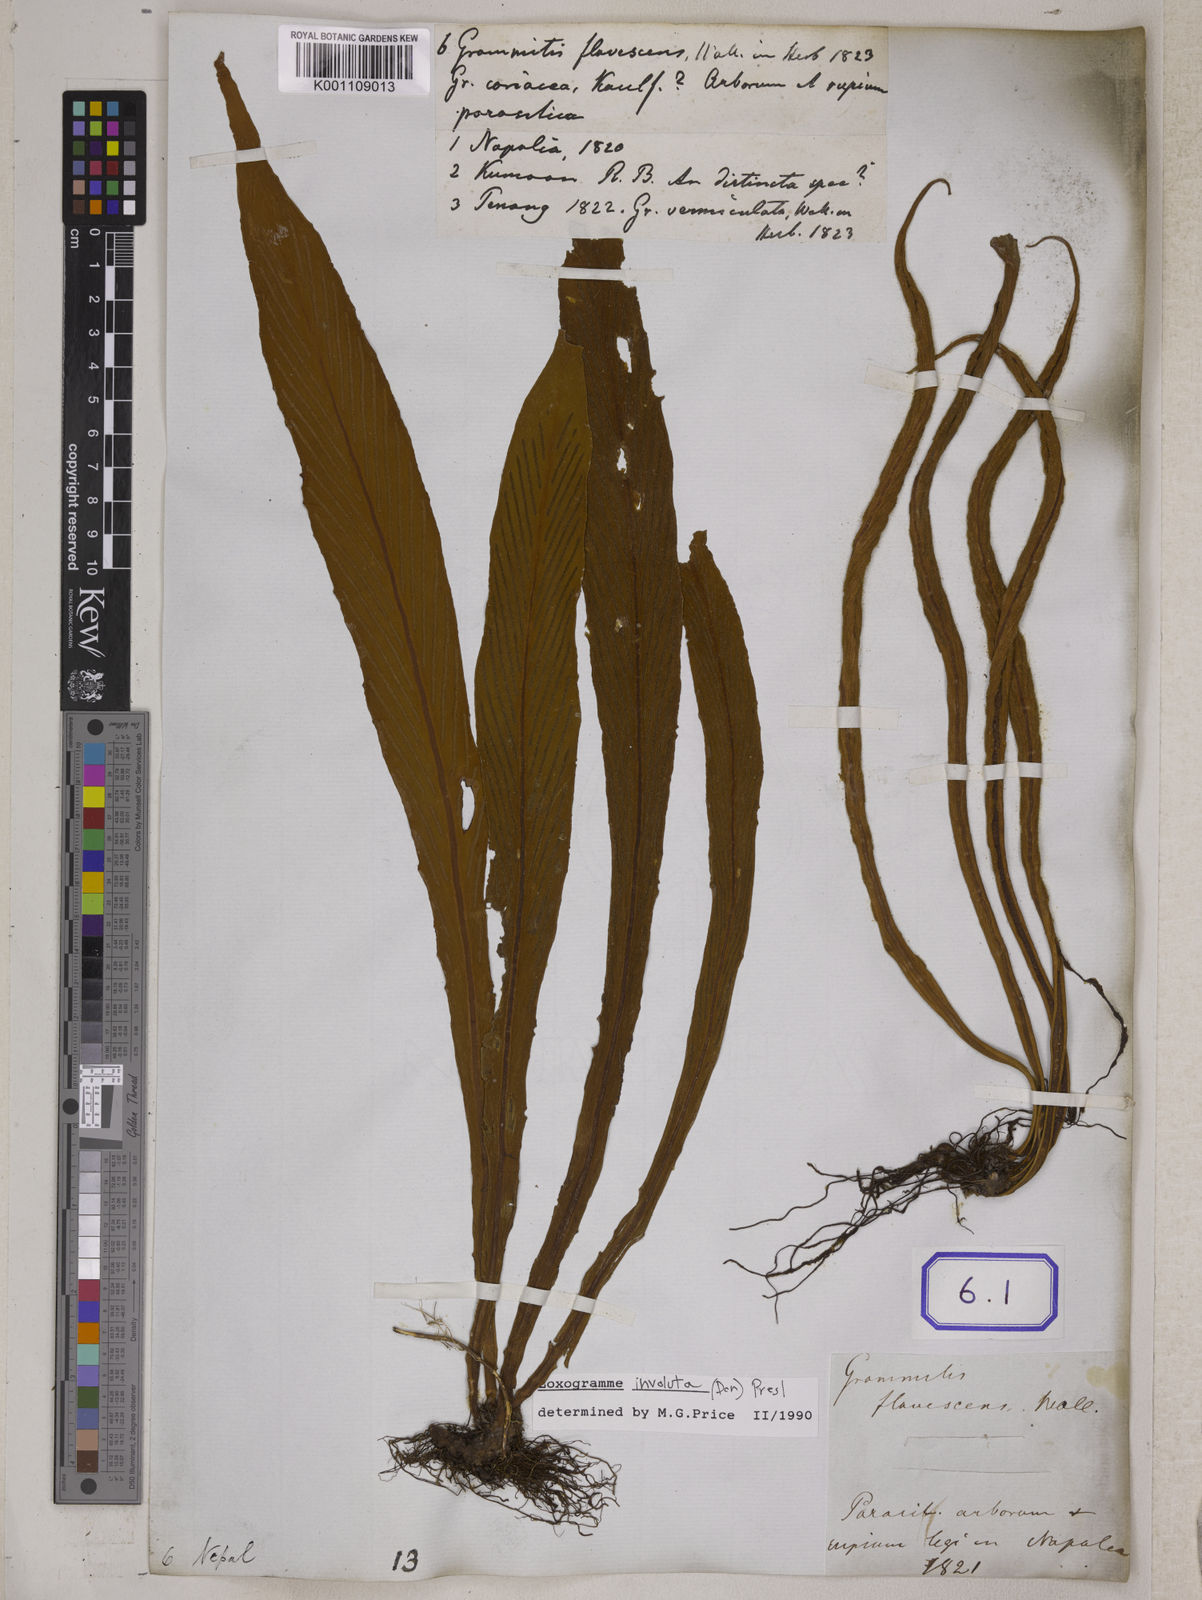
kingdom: Plantae
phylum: Tracheophyta
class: Polypodiopsida
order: Polypodiales
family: Polypodiaceae
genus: Loxogramme
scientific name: Loxogramme involuta
